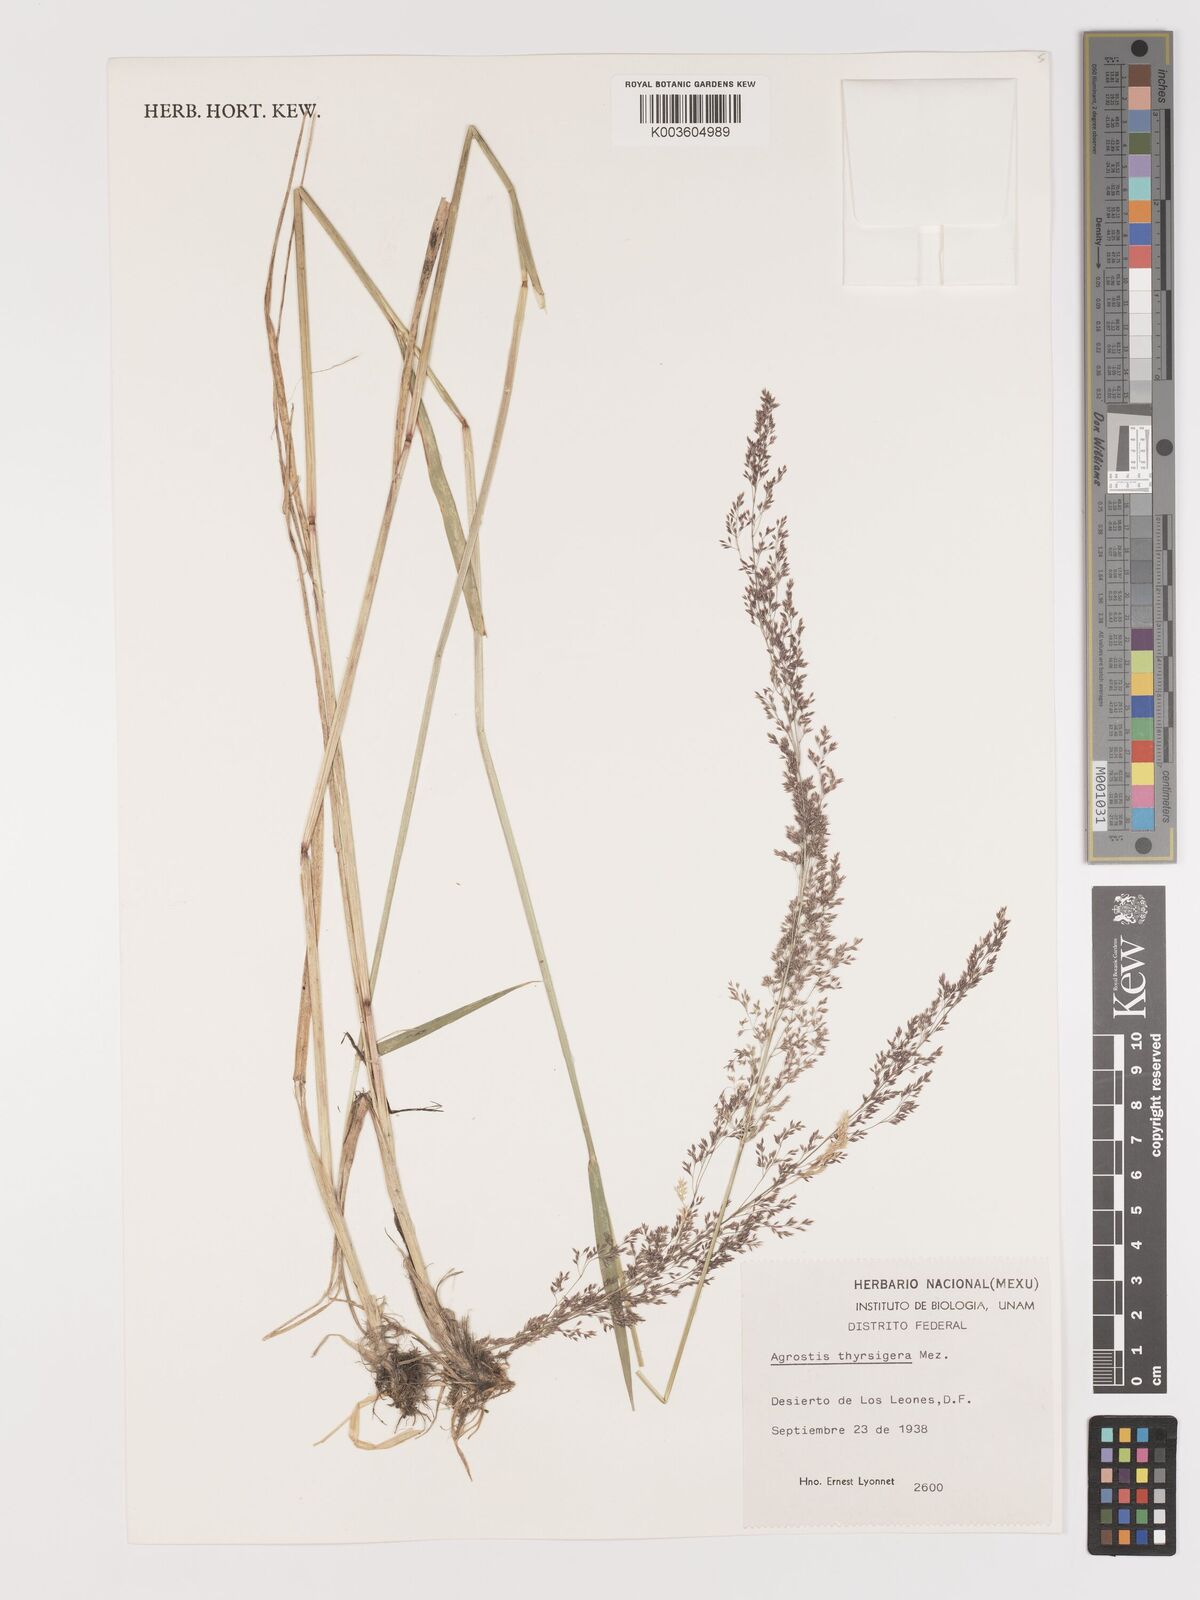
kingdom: Plantae
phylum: Tracheophyta
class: Liliopsida
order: Poales
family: Poaceae
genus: Agrostis
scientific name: Agrostis bourgaei
